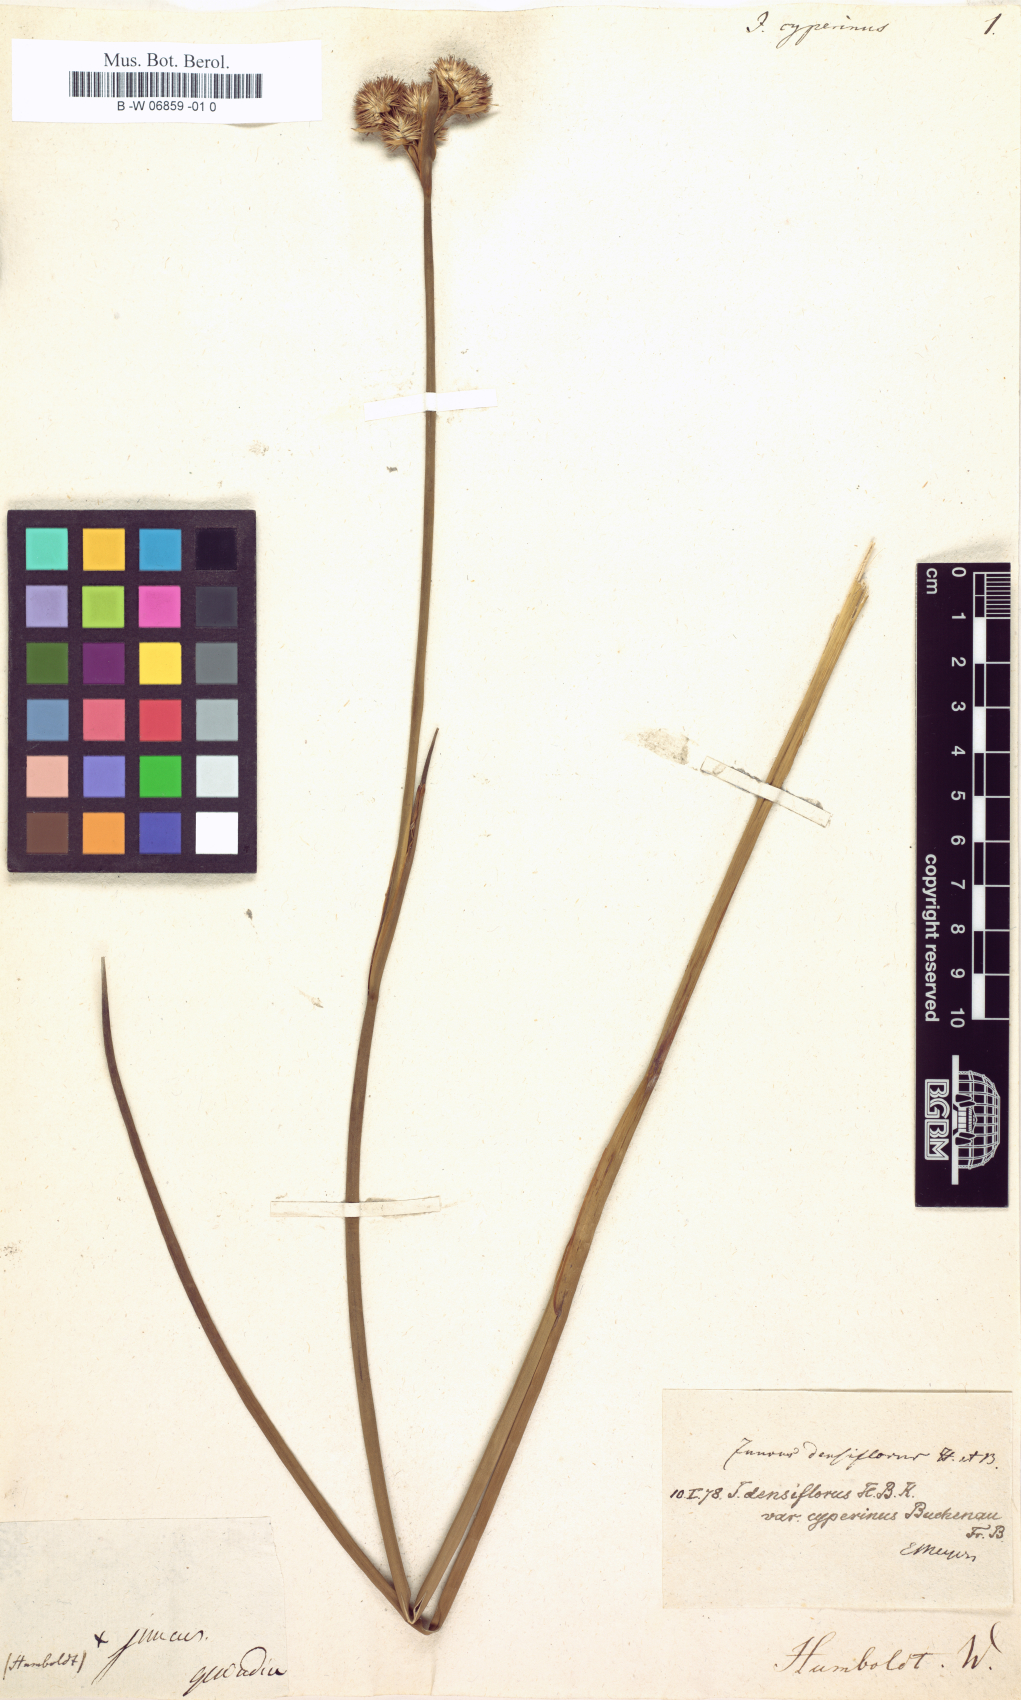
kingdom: Plantae
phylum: Tracheophyta
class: Liliopsida
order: Poales
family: Juncaceae
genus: Juncus
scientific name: Juncus densiflorus
